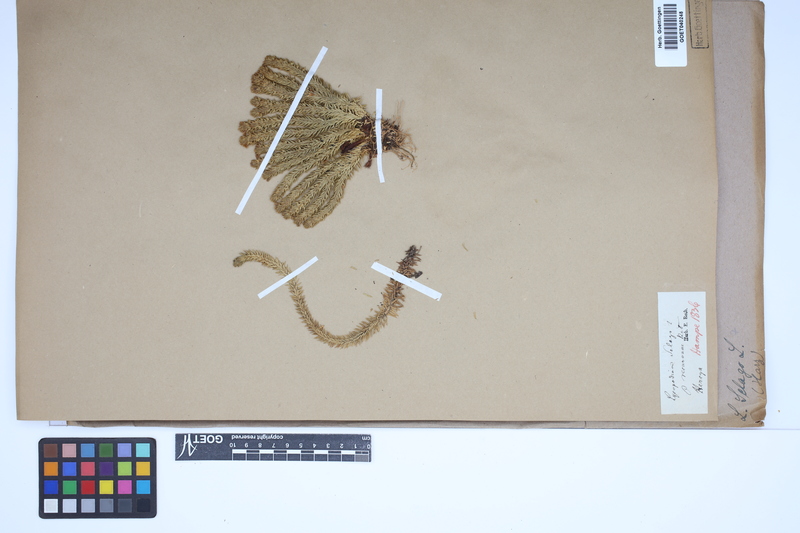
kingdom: Plantae
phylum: Tracheophyta
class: Lycopodiopsida
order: Lycopodiales
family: Lycopodiaceae
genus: Huperzia
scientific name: Huperzia selago
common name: Northern firmoss
